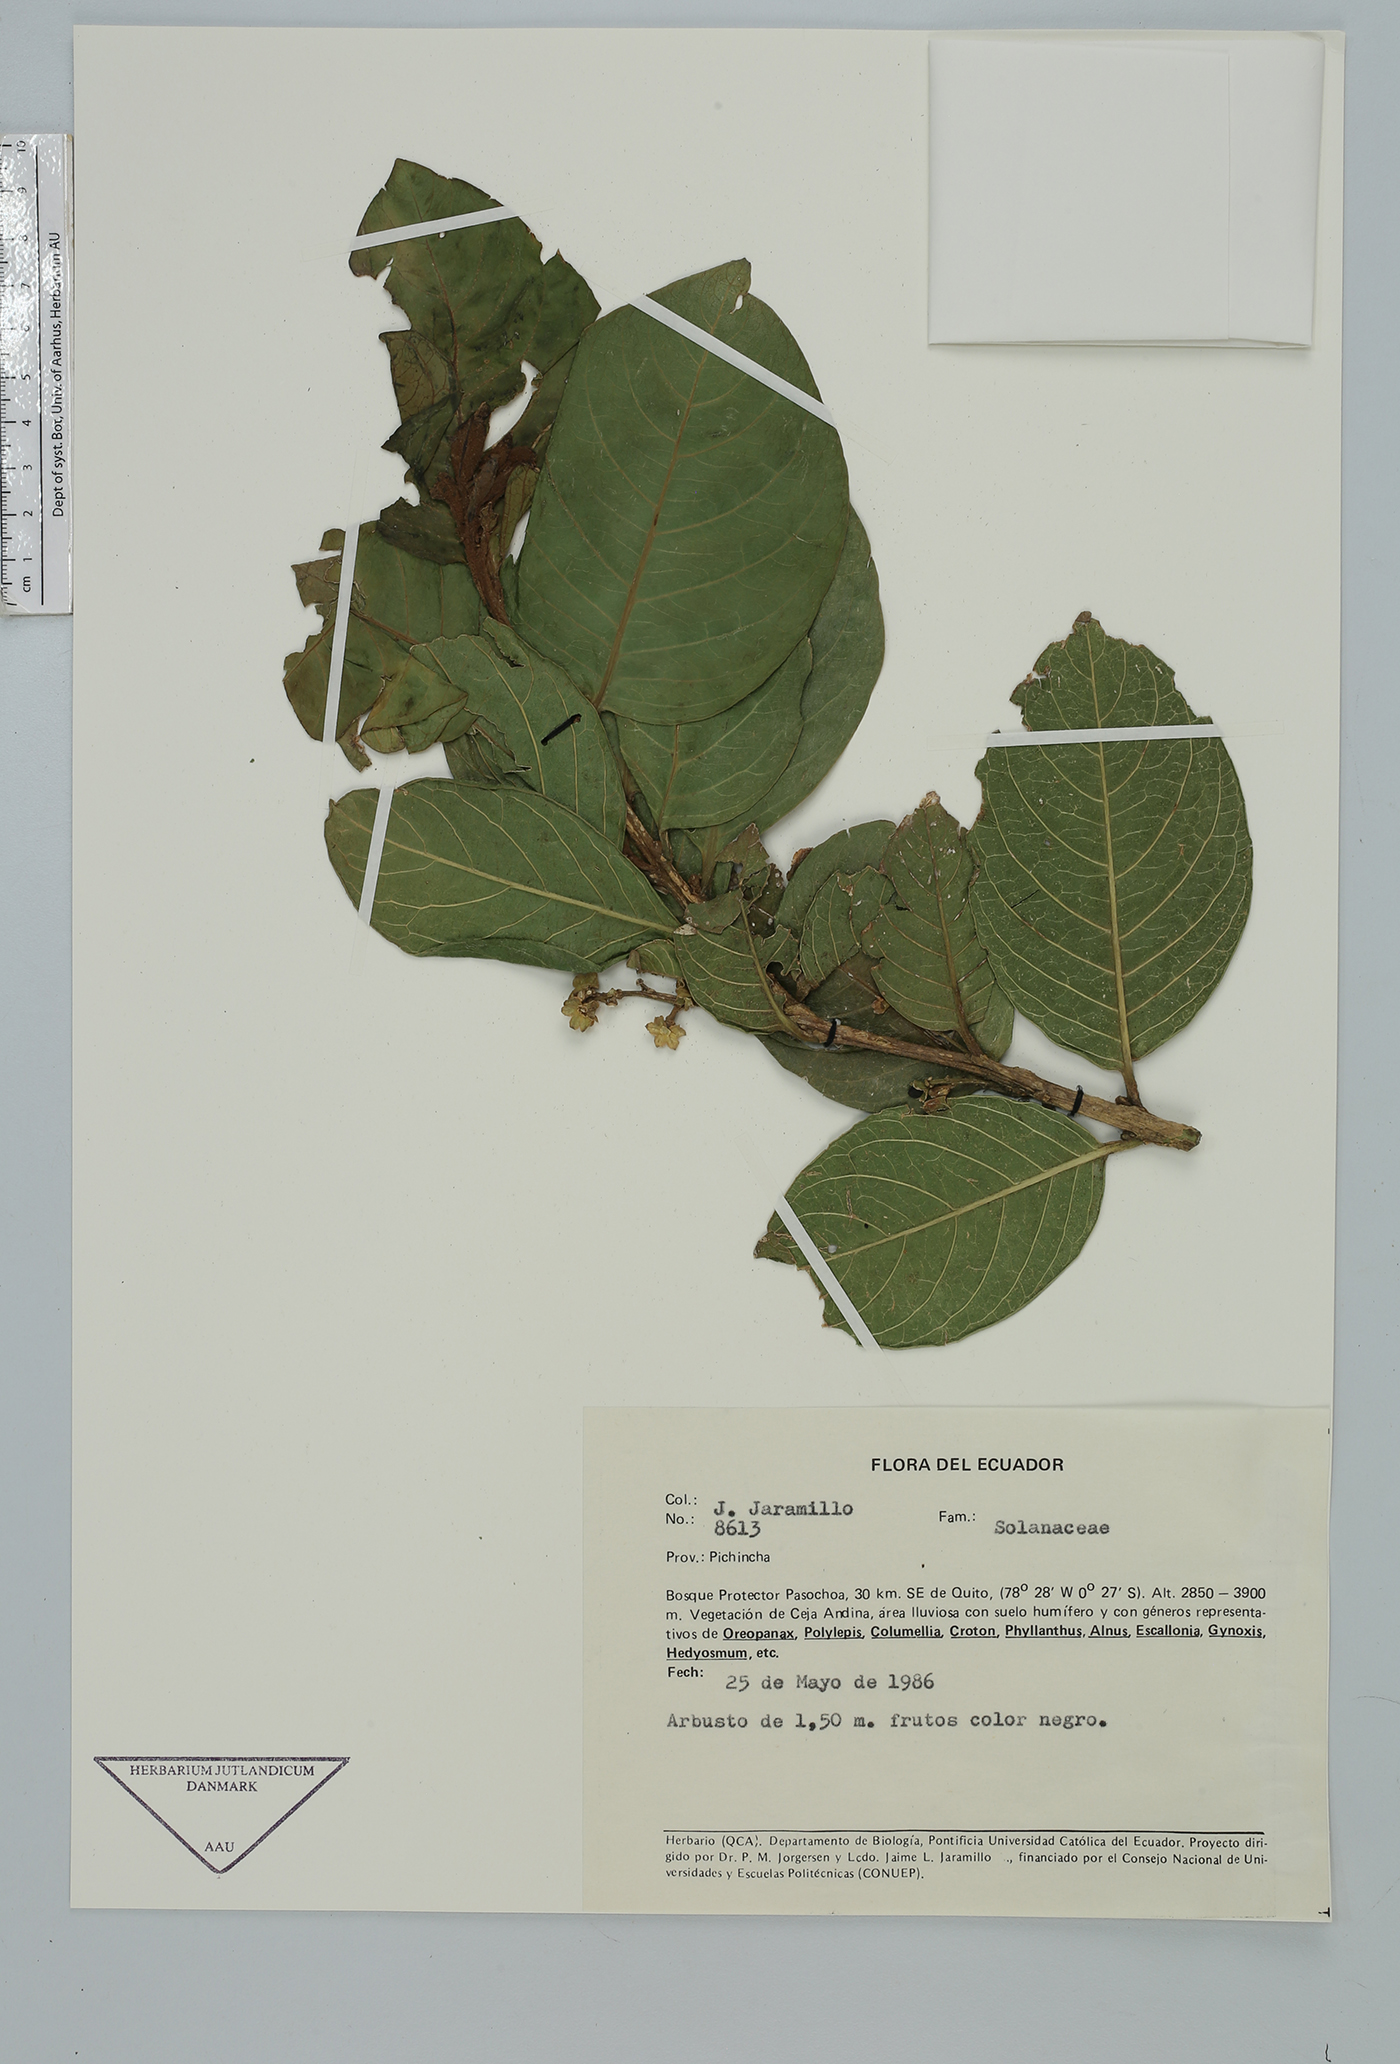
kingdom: Plantae
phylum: Tracheophyta
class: Magnoliopsida
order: Solanales
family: Solanaceae
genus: Cestrum
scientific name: Cestrum
